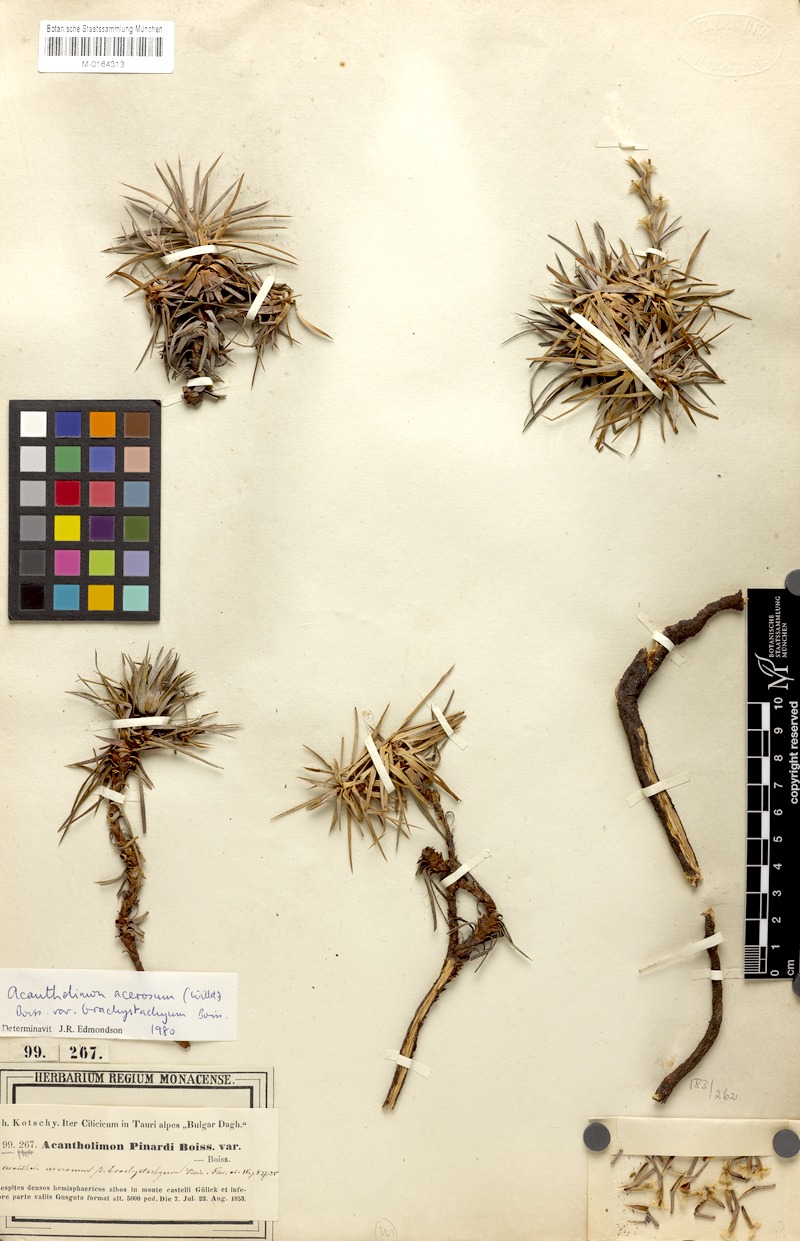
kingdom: Plantae
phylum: Tracheophyta
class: Magnoliopsida
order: Caryophyllales
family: Plumbaginaceae
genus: Acantholimon
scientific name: Acantholimon acerosum
